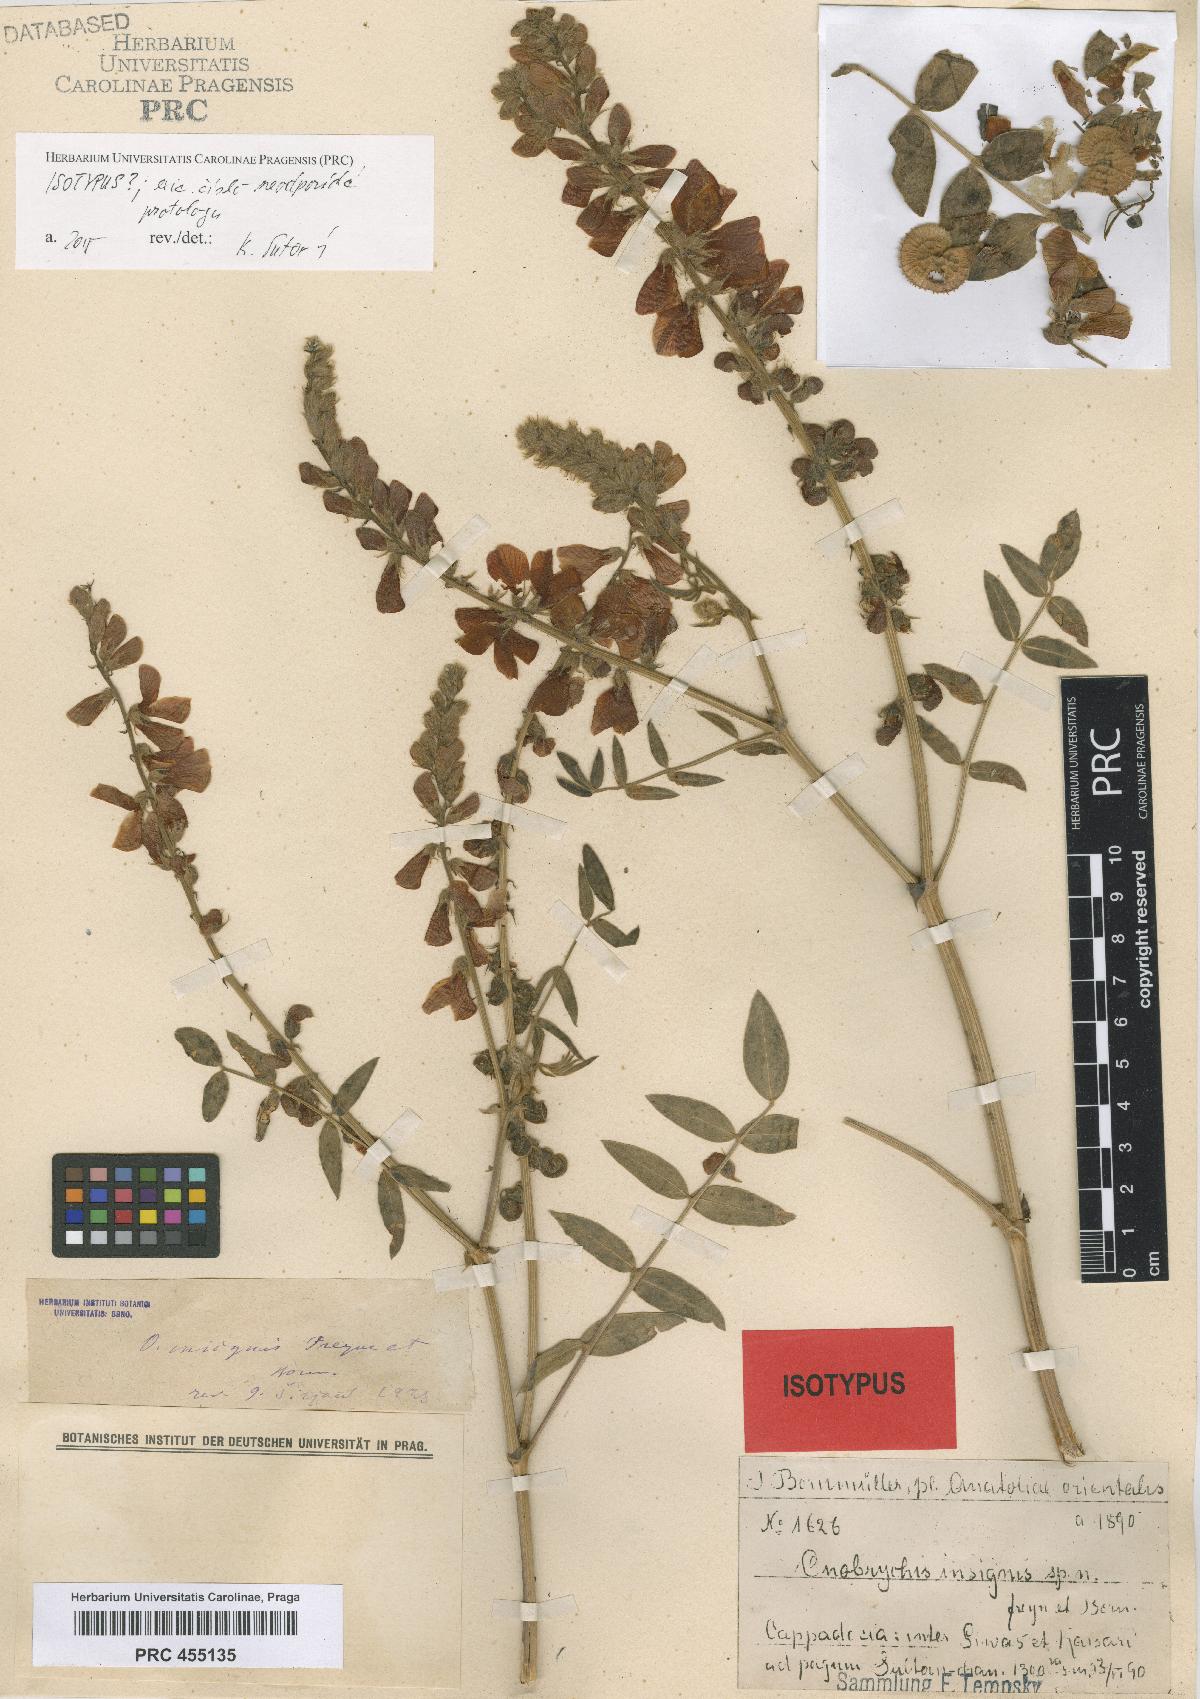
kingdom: Plantae
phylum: Tracheophyta
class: Magnoliopsida
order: Fabales
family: Fabaceae
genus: Onobrychis
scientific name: Onobrychis pallasii
